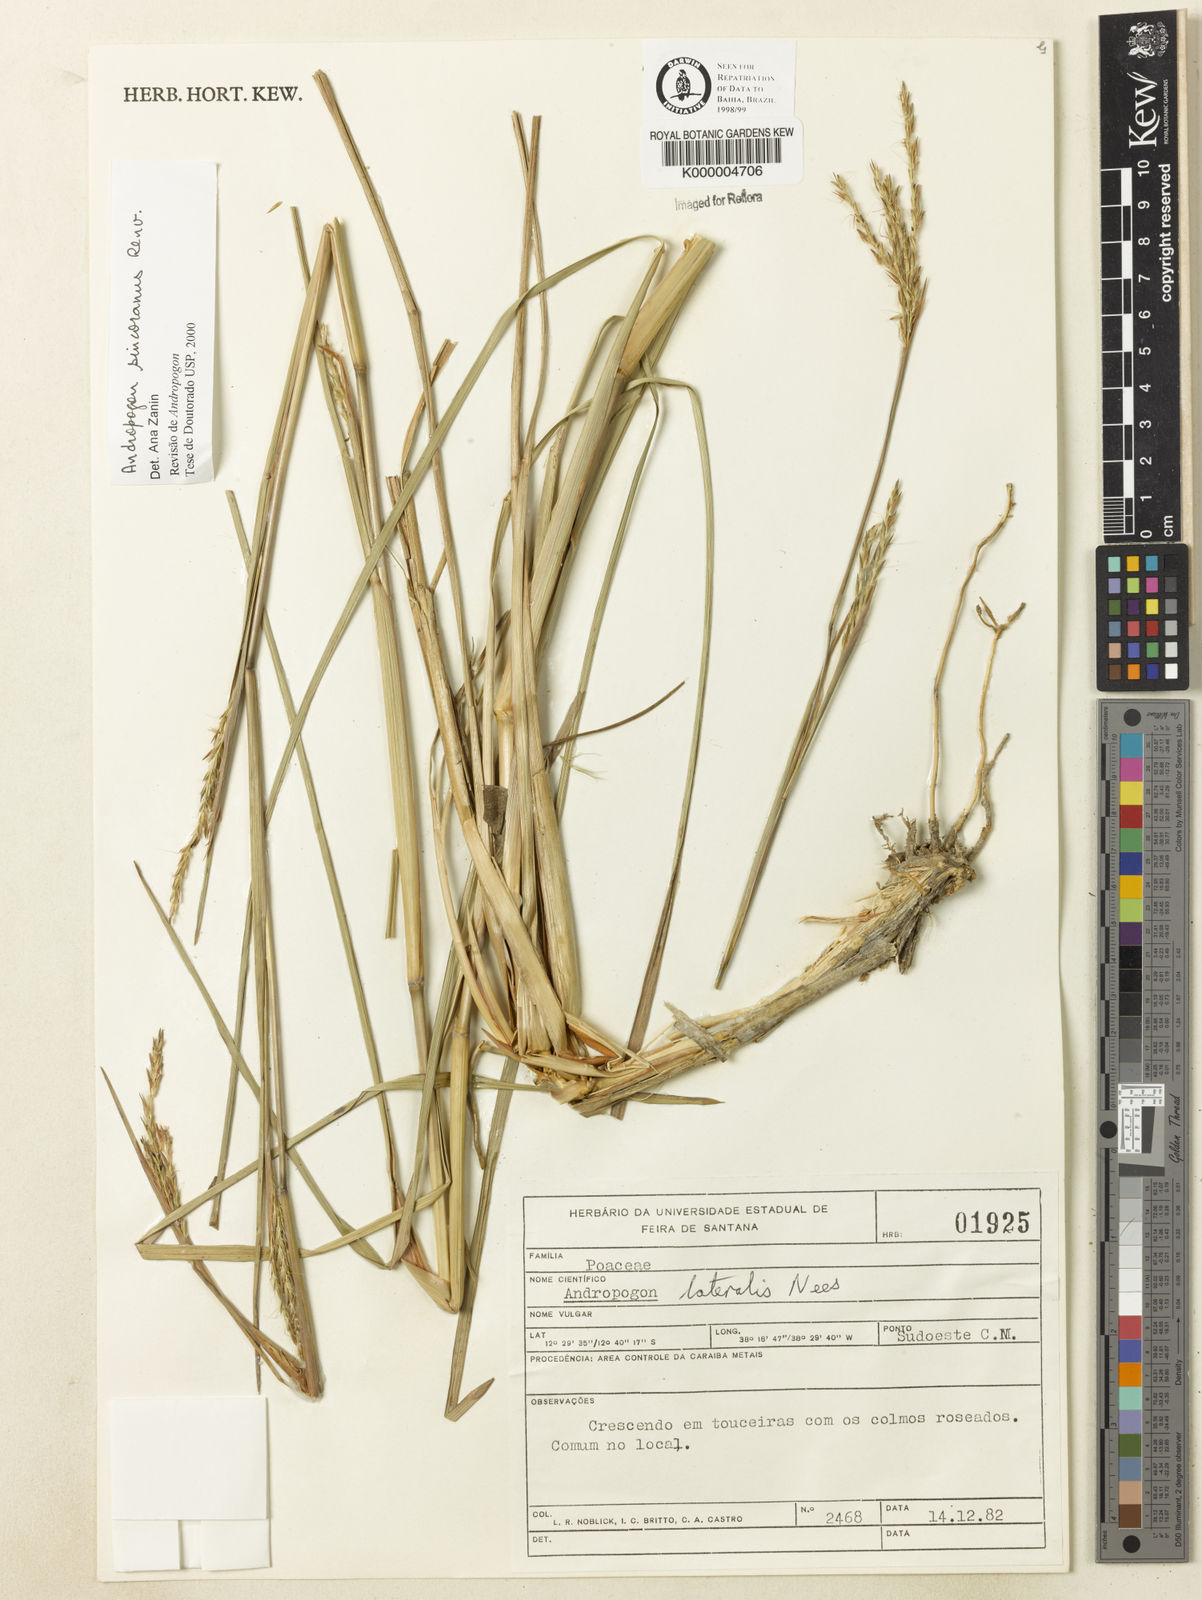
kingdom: Plantae
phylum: Tracheophyta
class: Liliopsida
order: Poales
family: Poaceae
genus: Andropogon
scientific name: Andropogon ingratus
